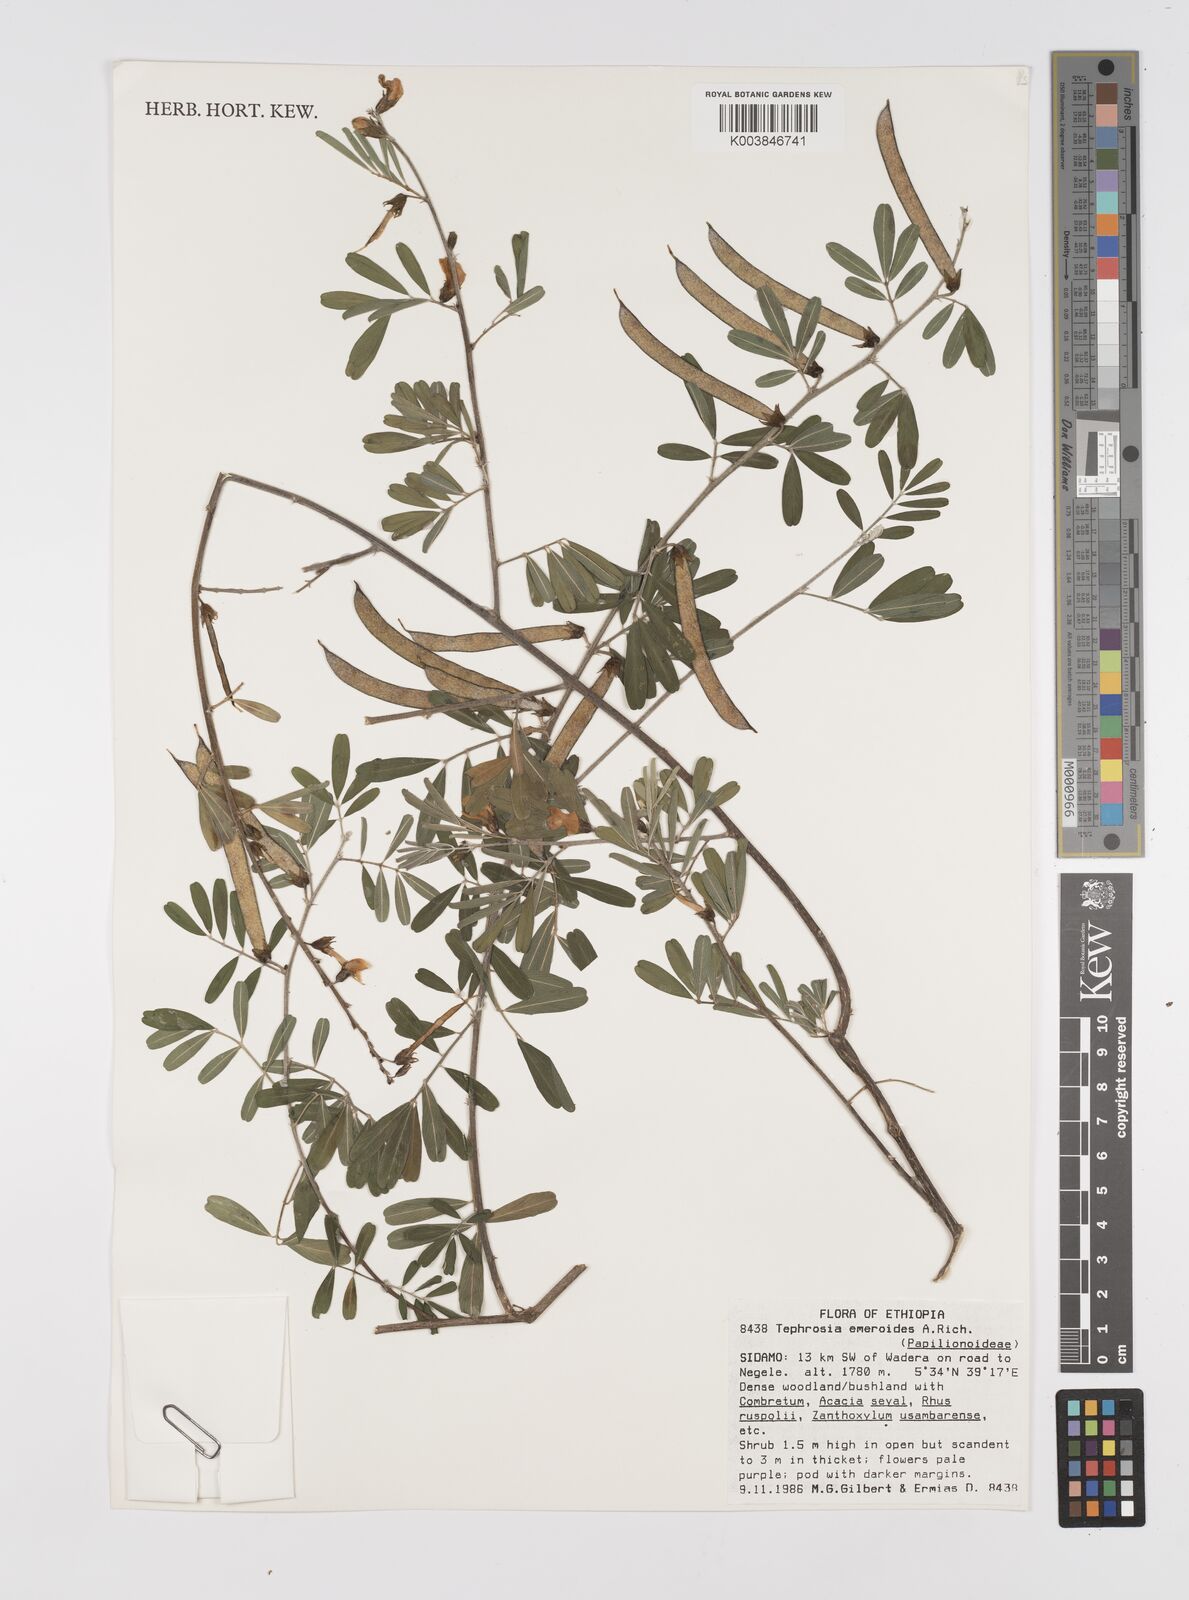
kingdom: Plantae
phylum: Tracheophyta
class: Magnoliopsida
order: Fabales
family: Fabaceae
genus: Tephrosia
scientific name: Tephrosia emeroides
